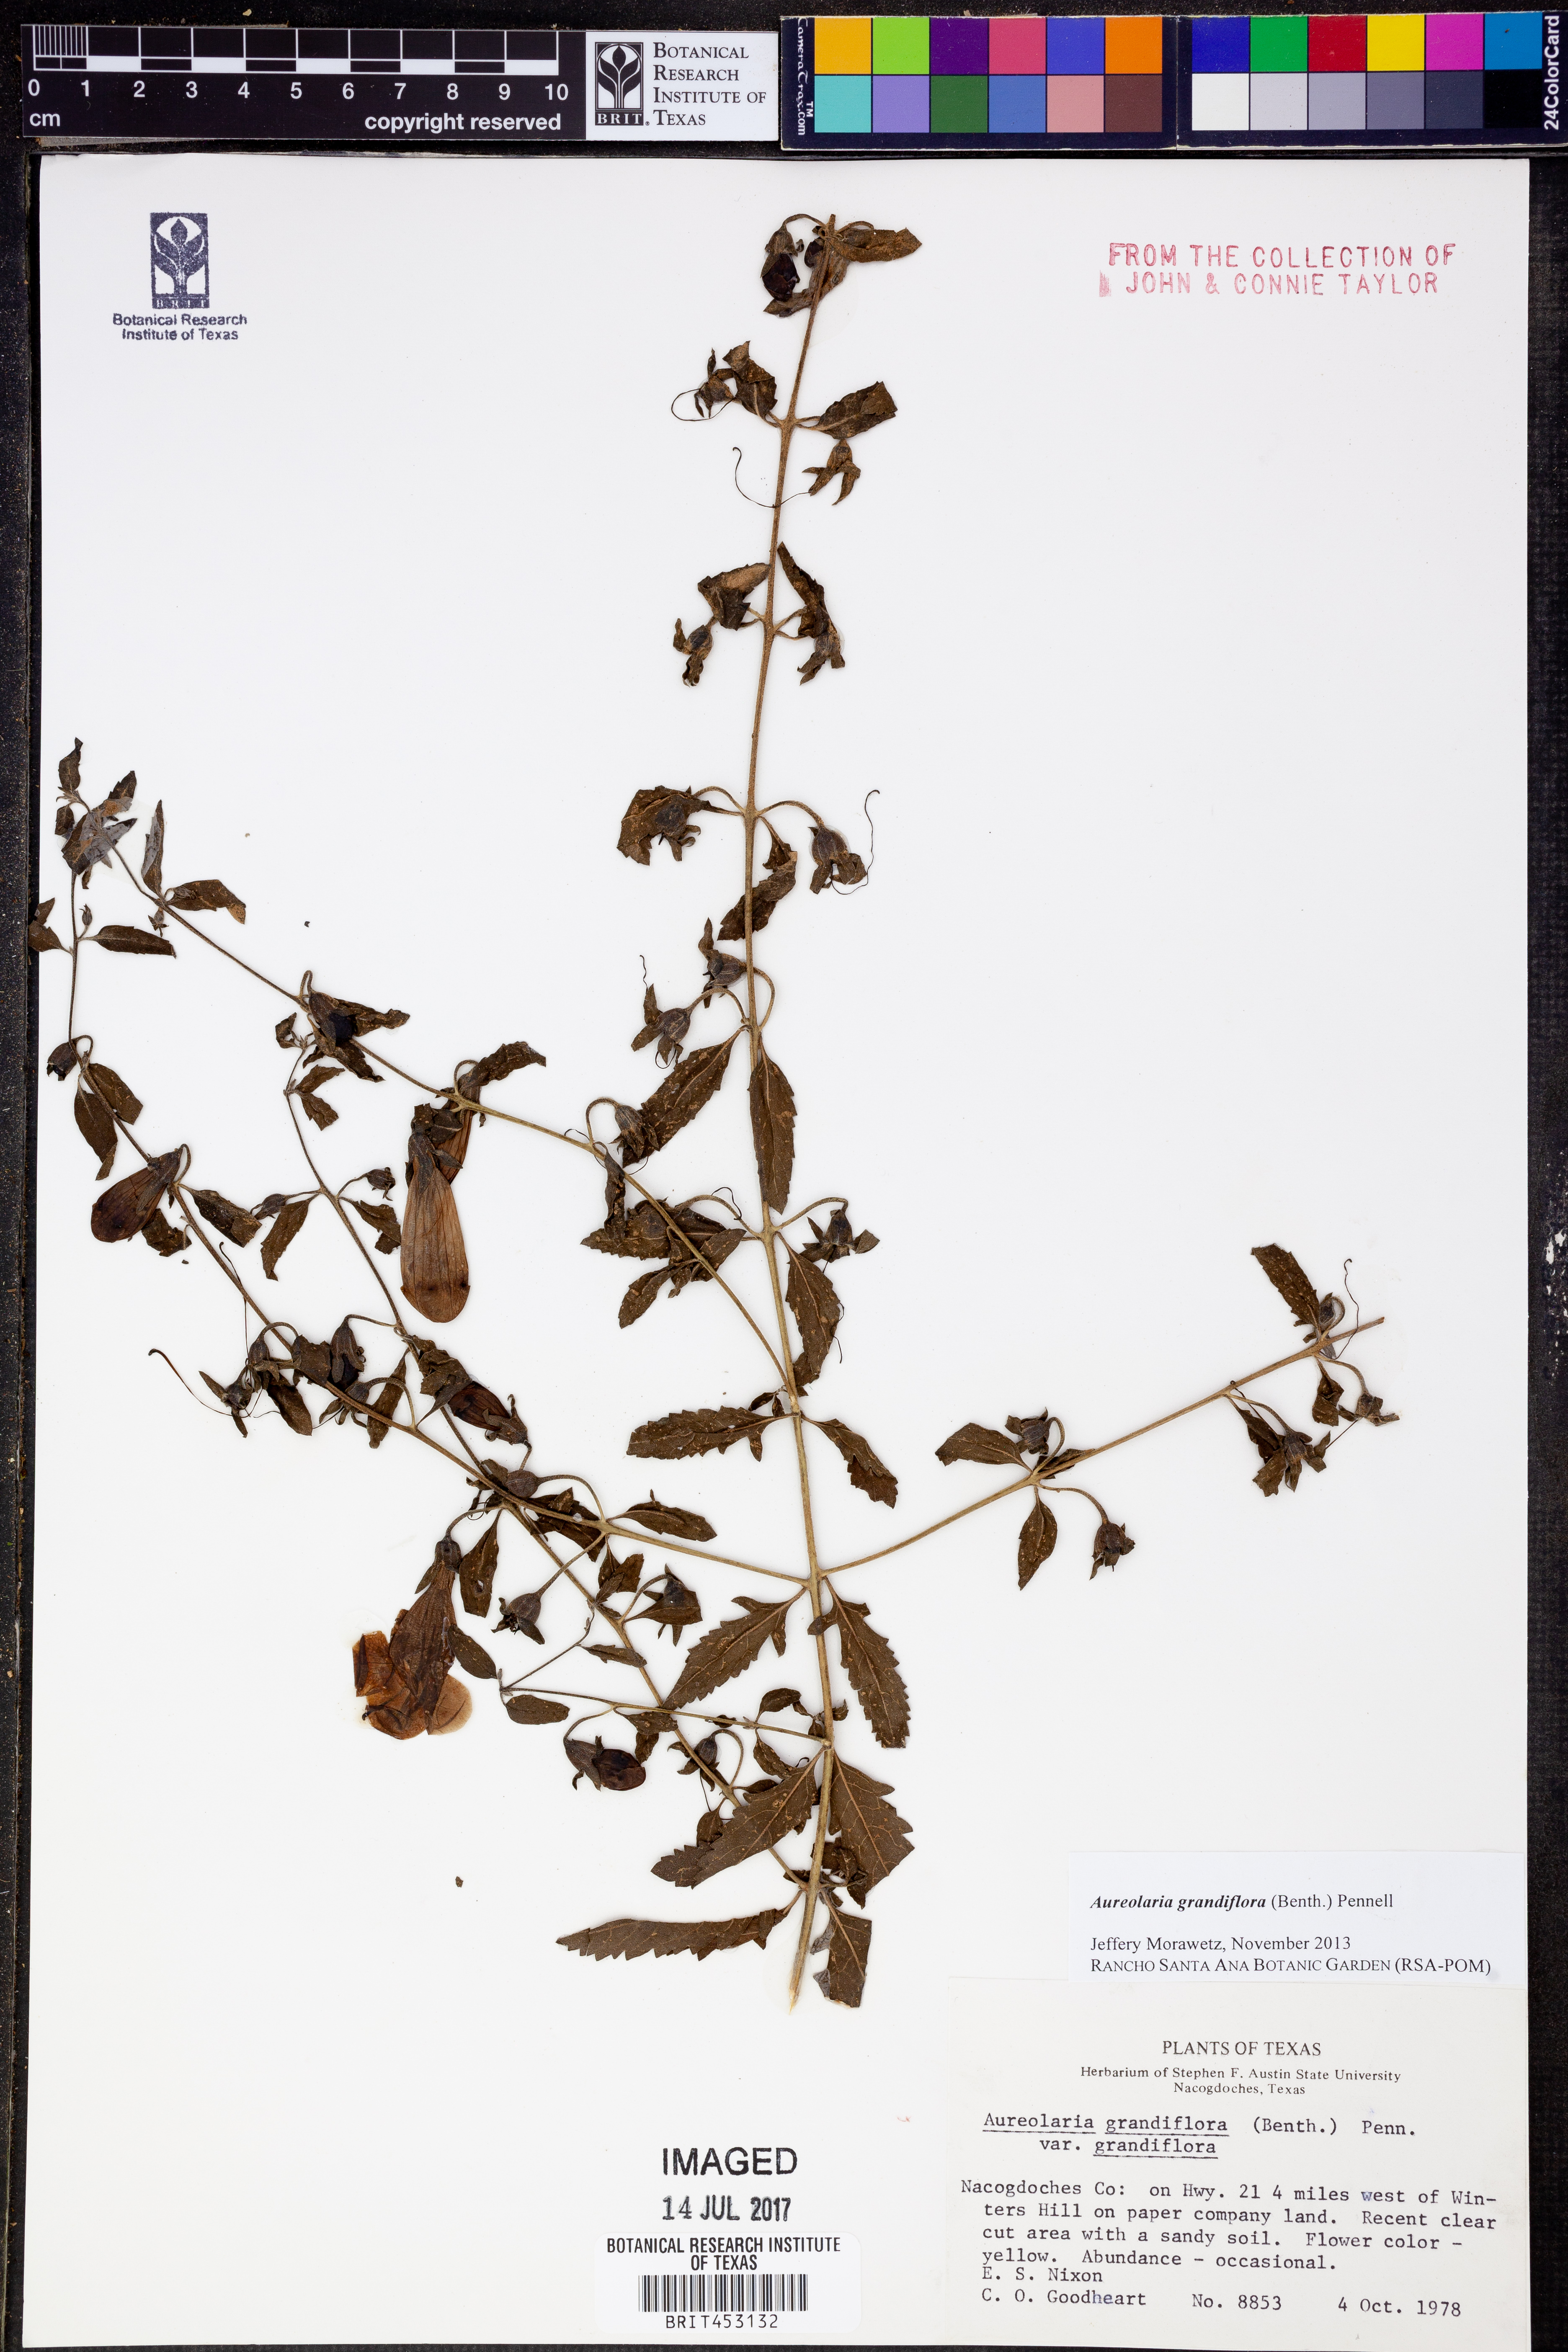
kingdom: Plantae
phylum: Tracheophyta
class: Magnoliopsida
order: Lamiales
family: Orobanchaceae
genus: Aureolaria
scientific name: Aureolaria grandiflora
